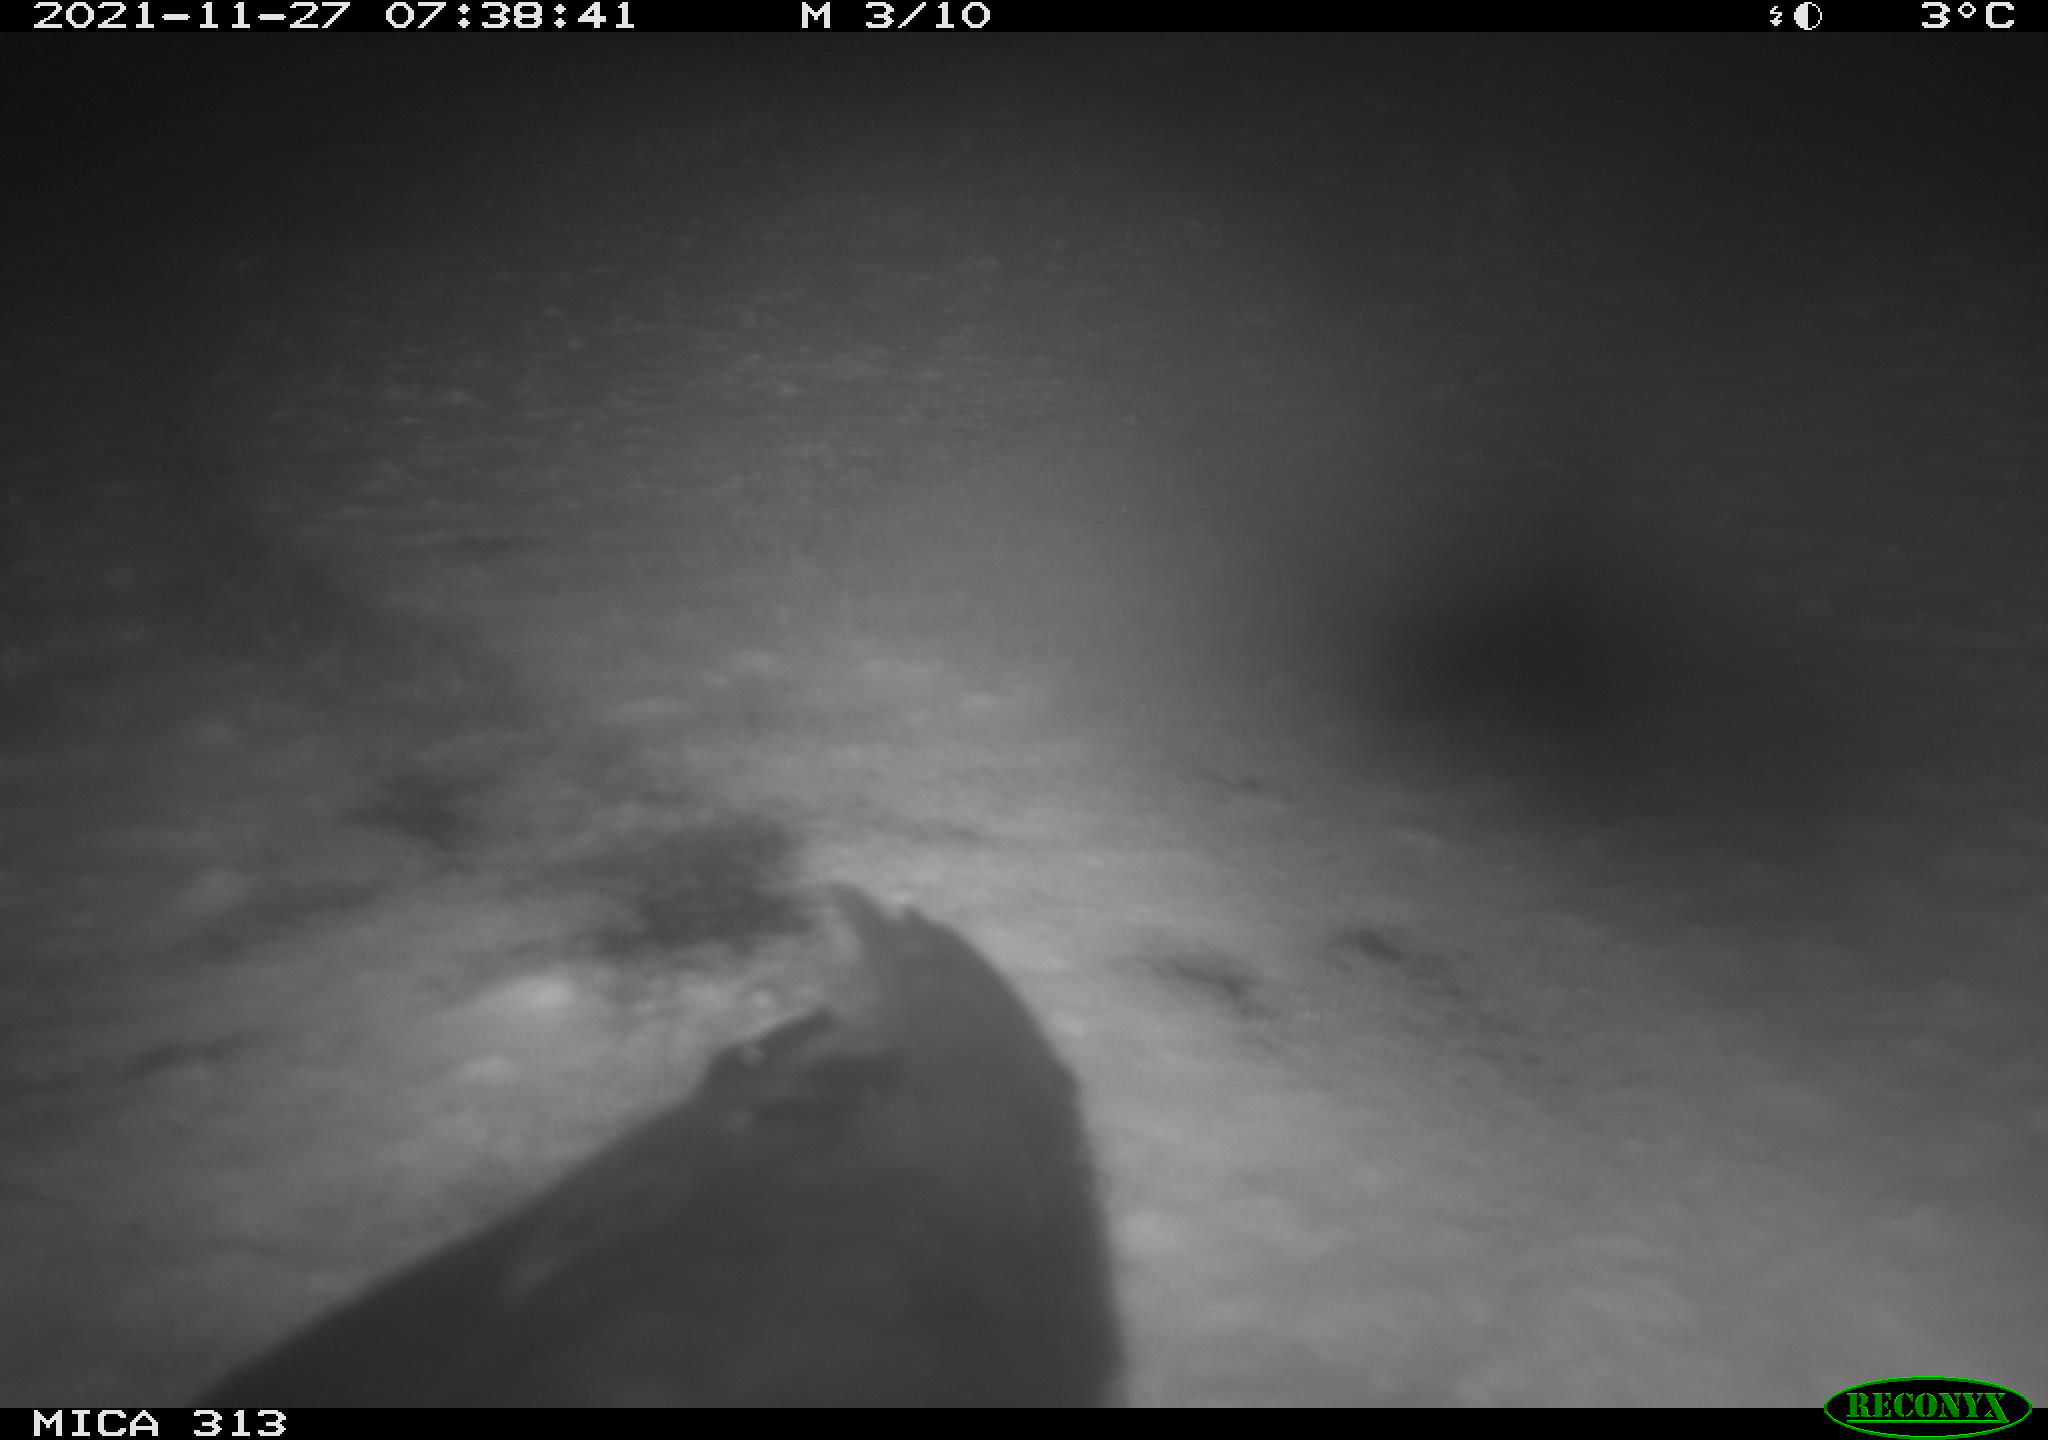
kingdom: Animalia
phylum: Chordata
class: Aves
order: Gruiformes
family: Rallidae
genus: Gallinula
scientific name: Gallinula chloropus
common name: Common moorhen
